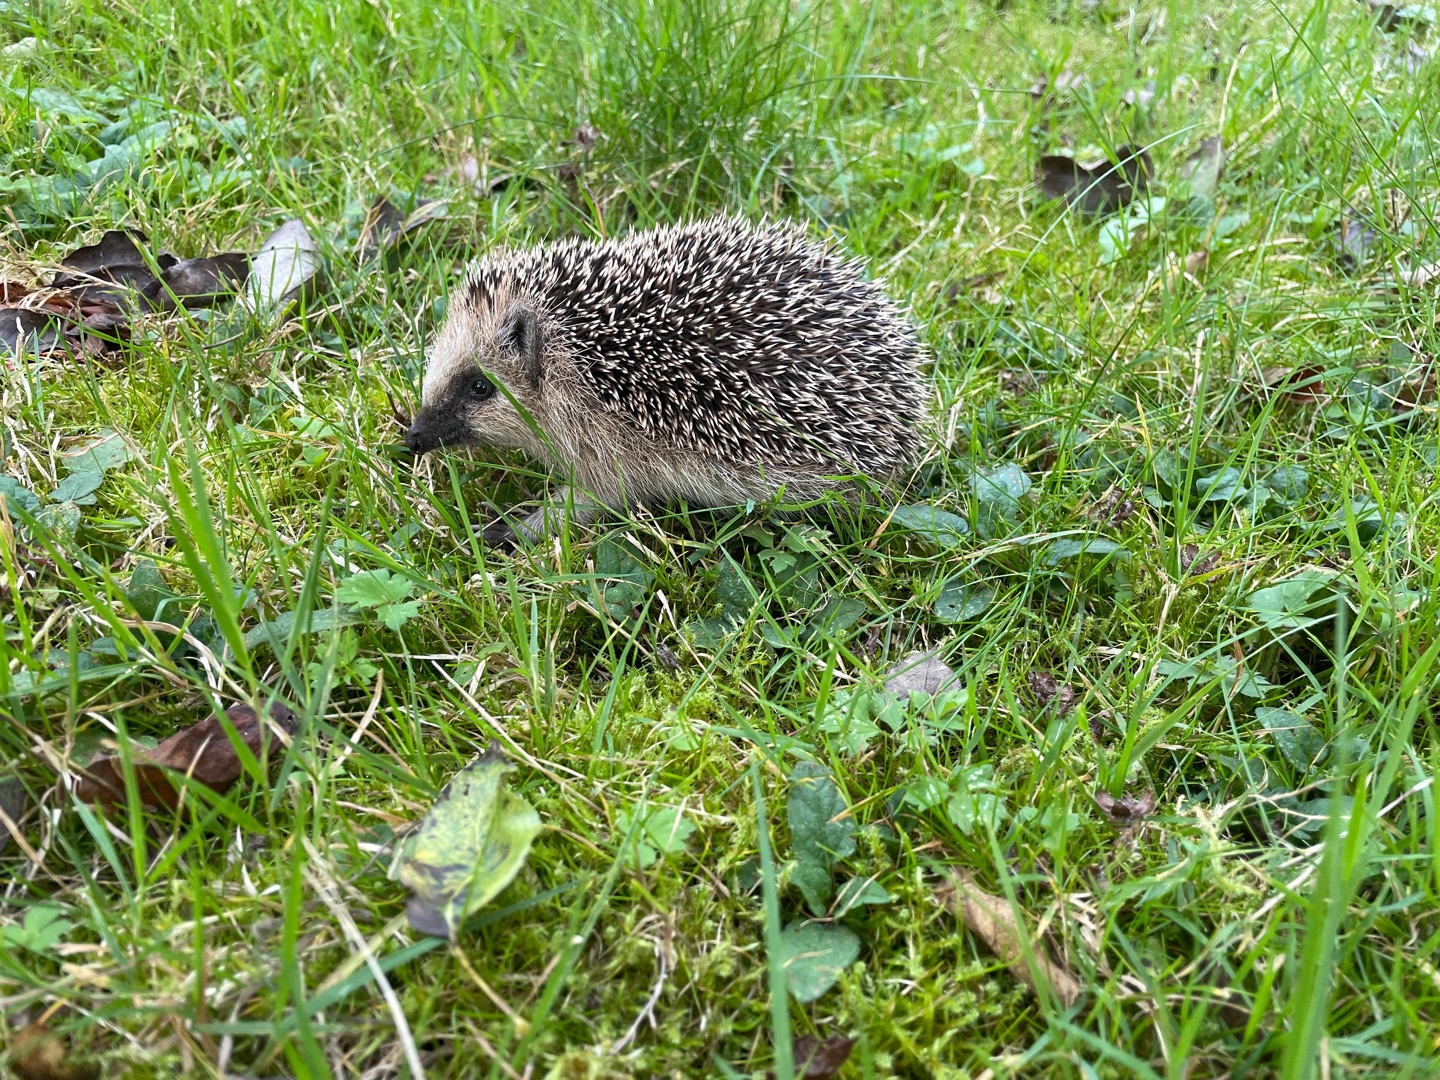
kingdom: Animalia
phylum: Chordata
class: Mammalia
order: Erinaceomorpha
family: Erinaceidae
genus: Erinaceus
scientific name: Erinaceus europaeus
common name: Pindsvin
